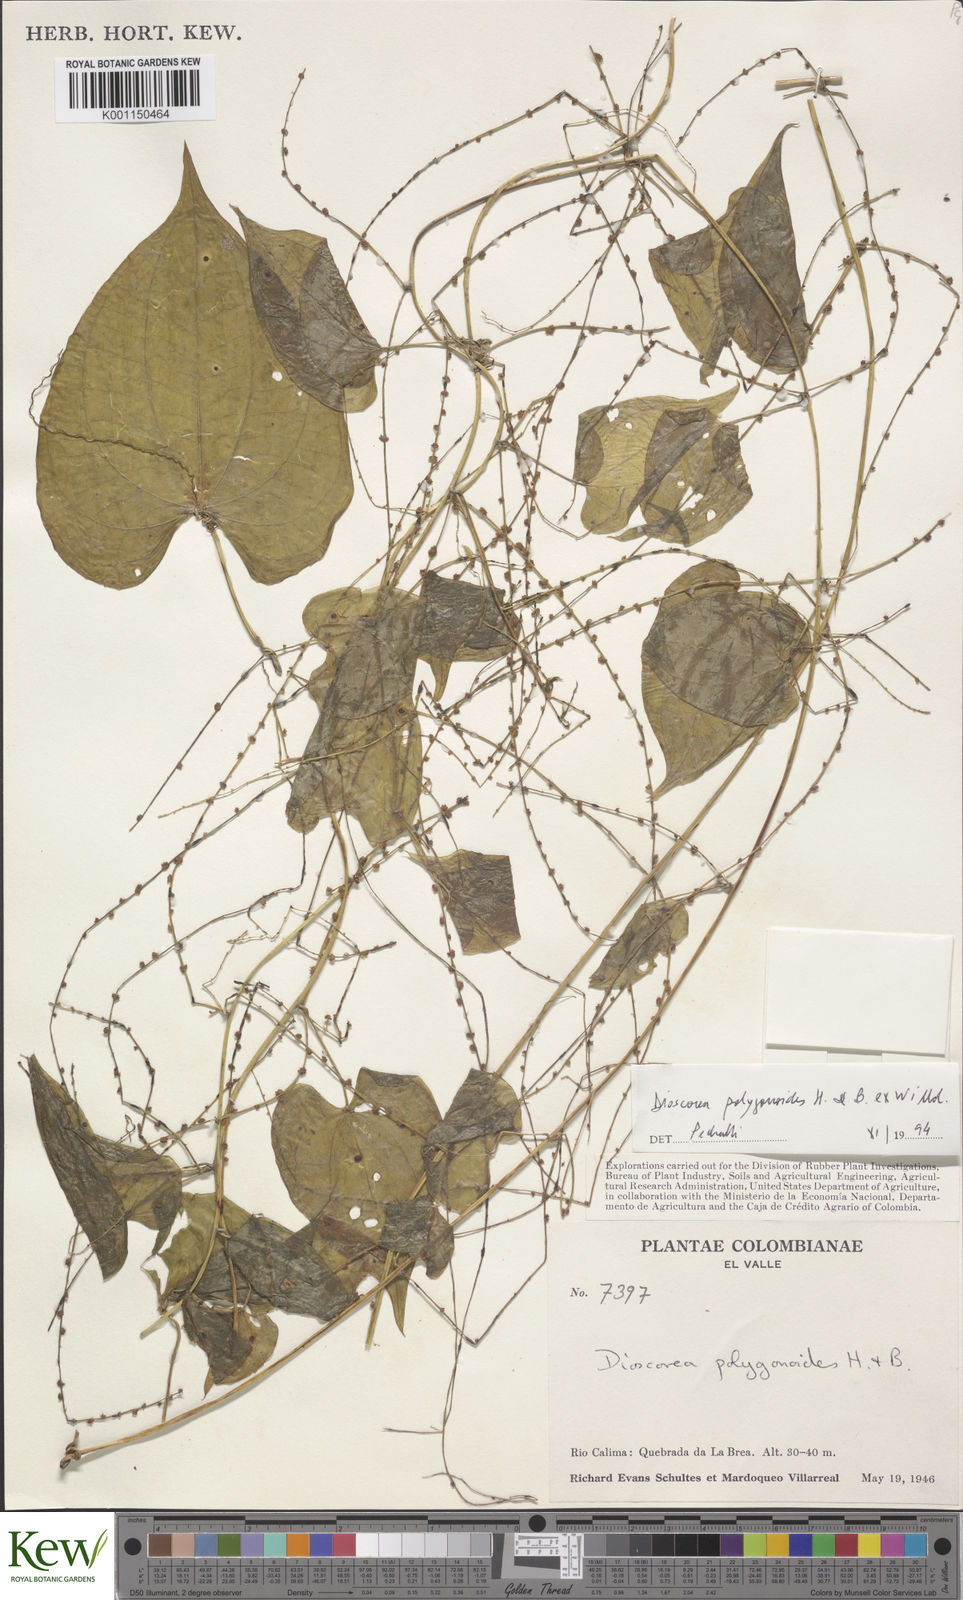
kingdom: Plantae
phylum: Tracheophyta
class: Liliopsida
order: Dioscoreales
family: Dioscoreaceae
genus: Dioscorea
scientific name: Dioscorea polygonoides
